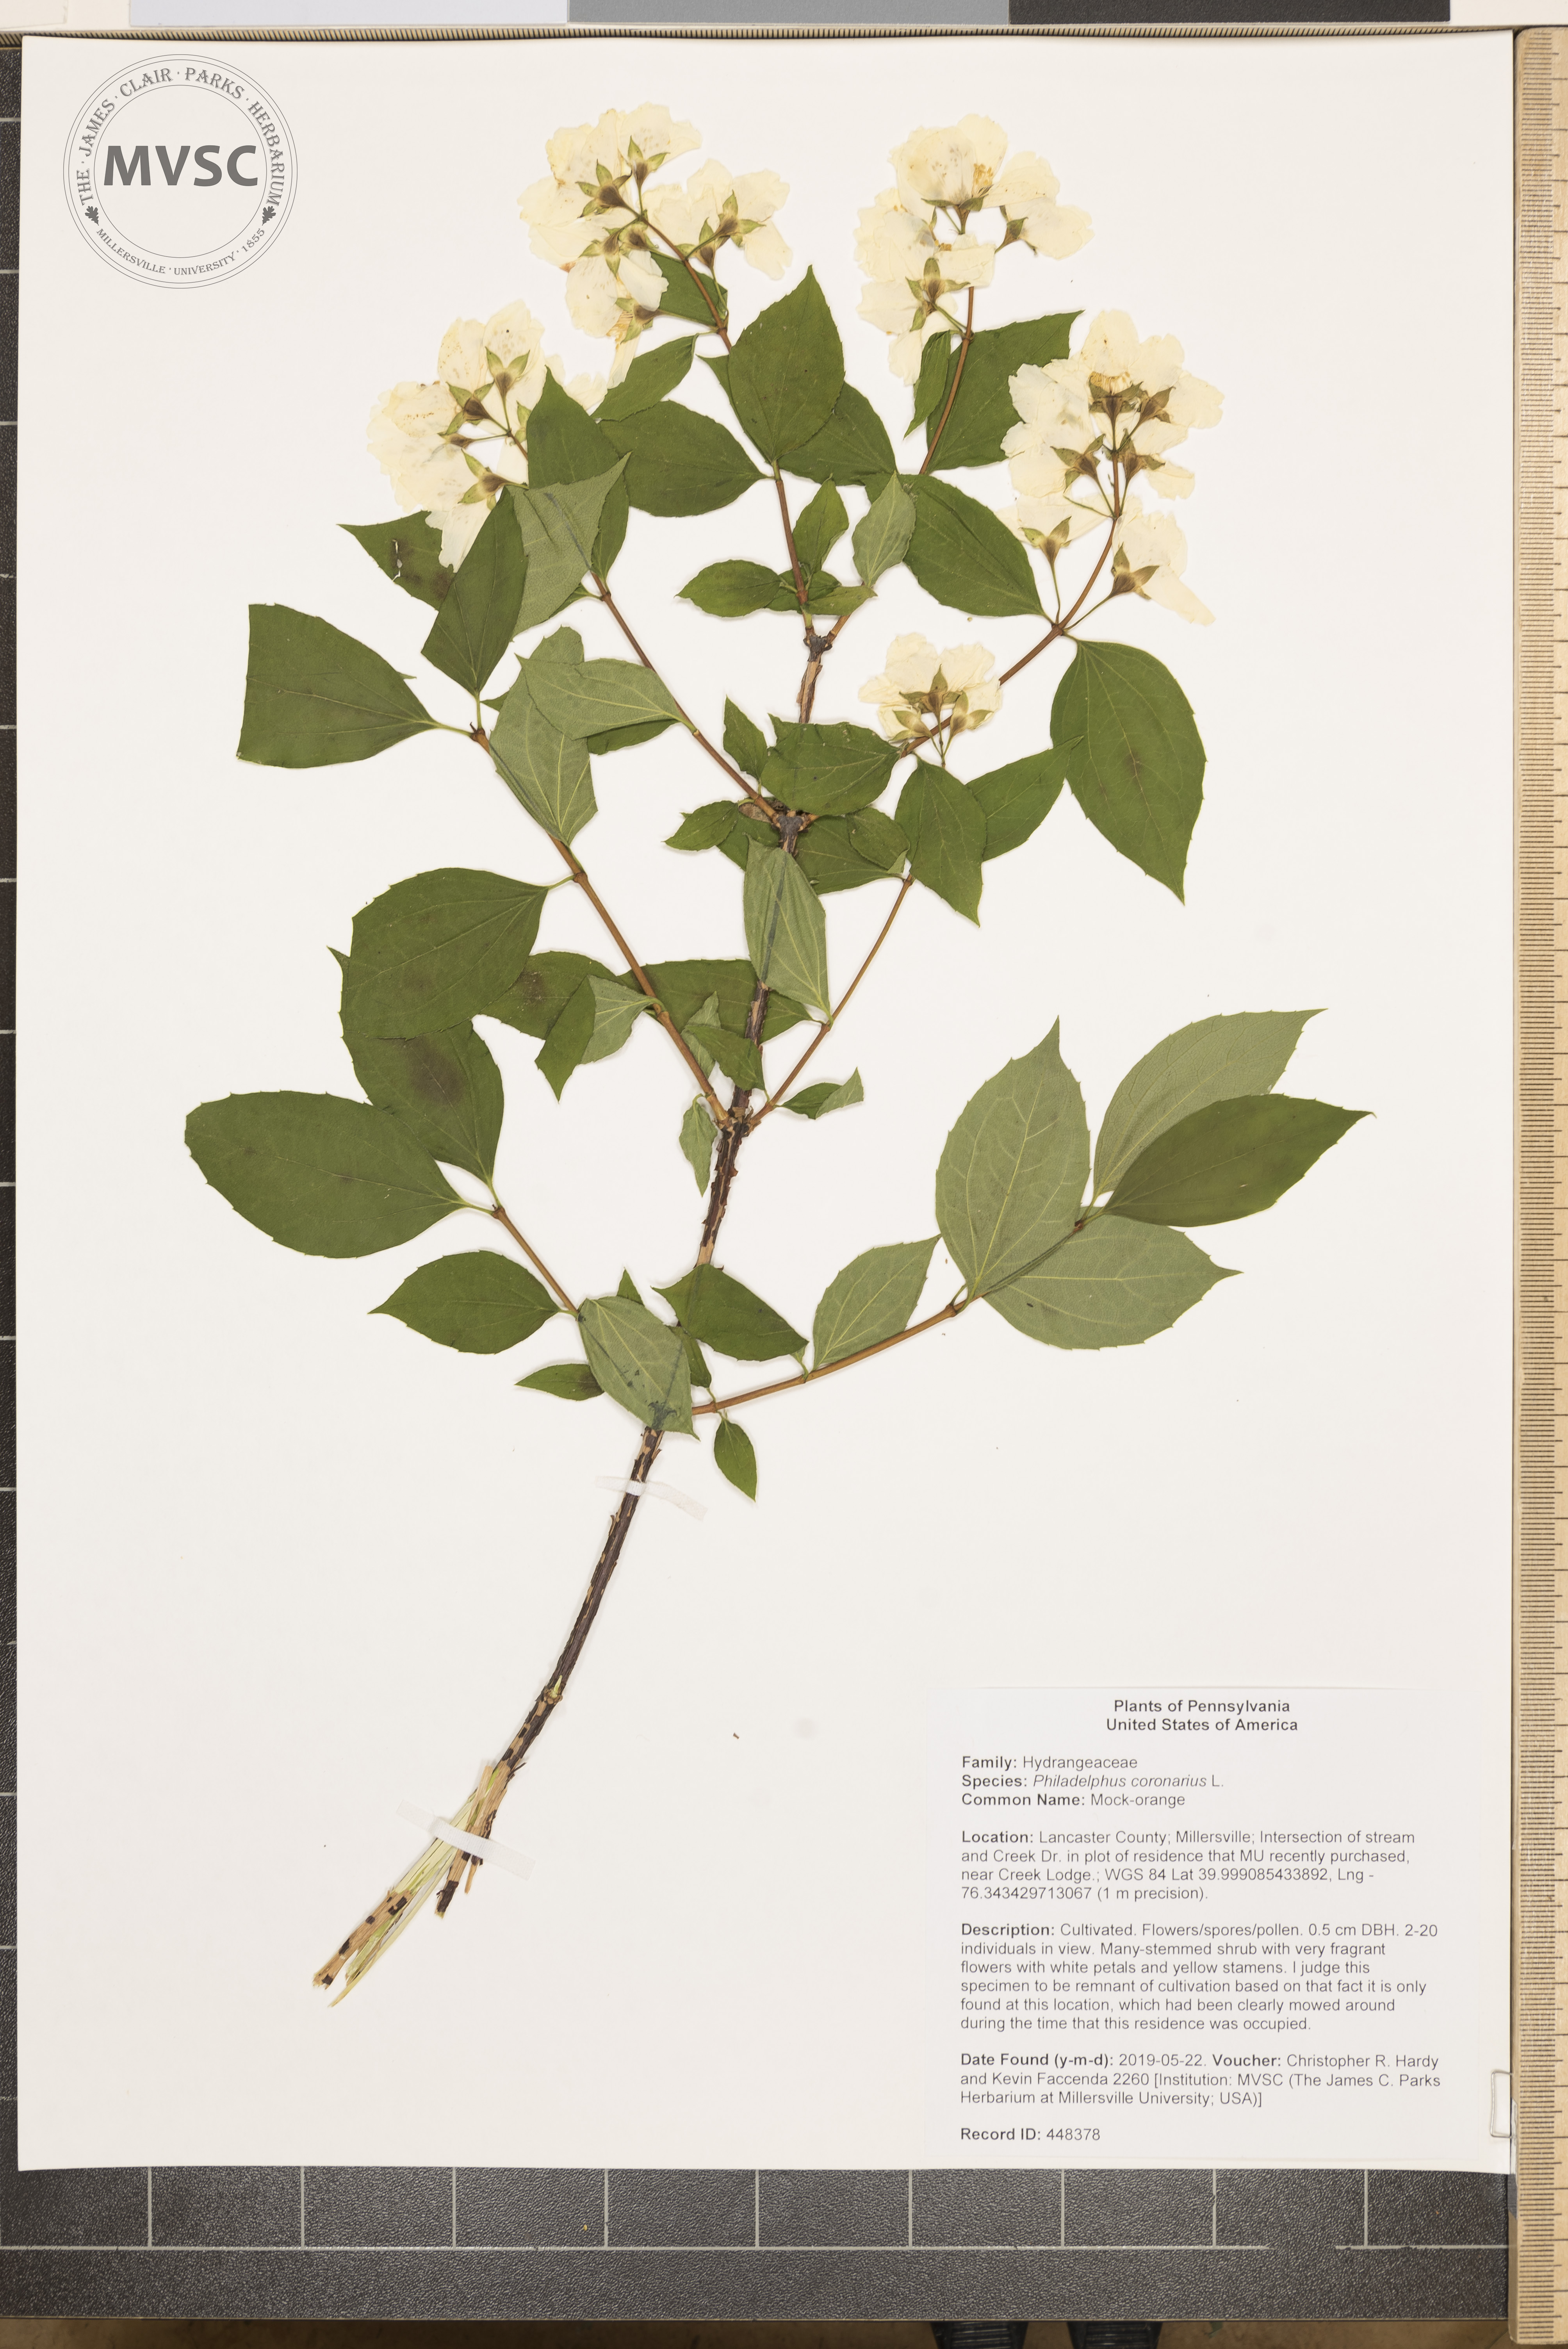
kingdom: Plantae
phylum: Tracheophyta
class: Magnoliopsida
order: Cornales
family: Hydrangeaceae
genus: Philadelphus
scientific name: Philadelphus coronarius
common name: Mock-orange
